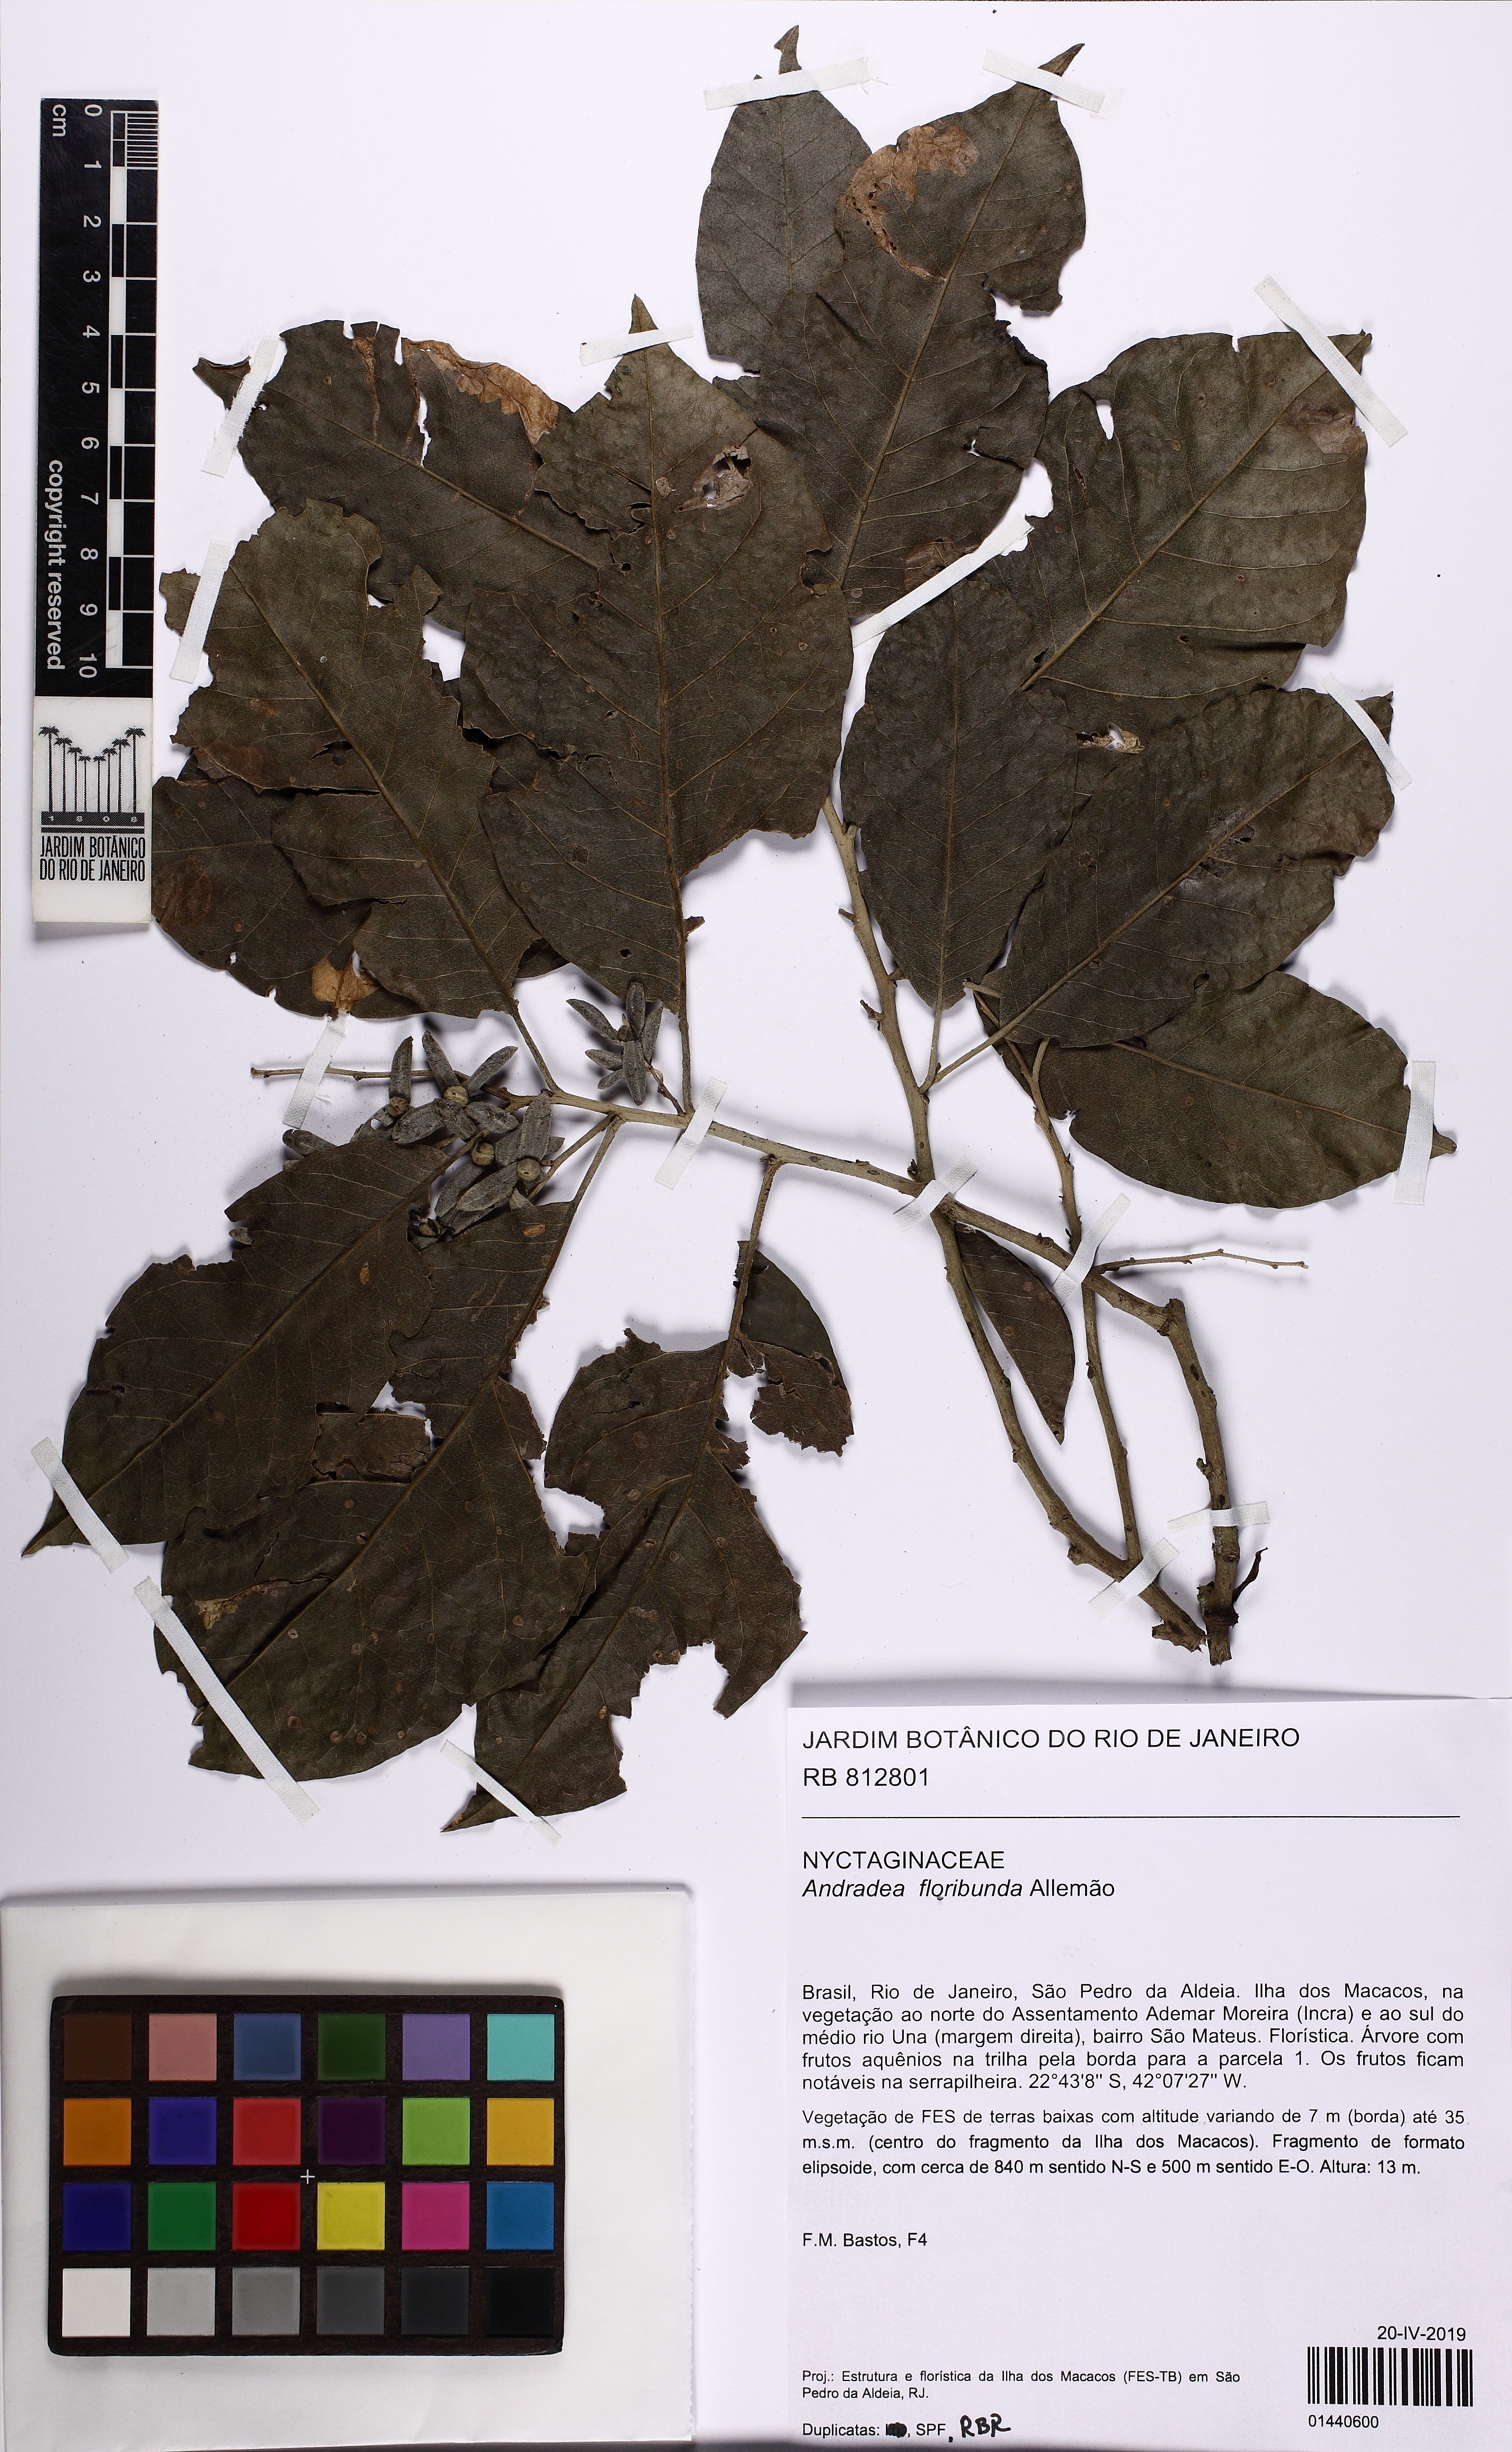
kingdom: Plantae
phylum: Tracheophyta
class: Magnoliopsida
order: Caryophyllales
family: Nyctaginaceae
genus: Andradea
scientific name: Andradea floribunda
